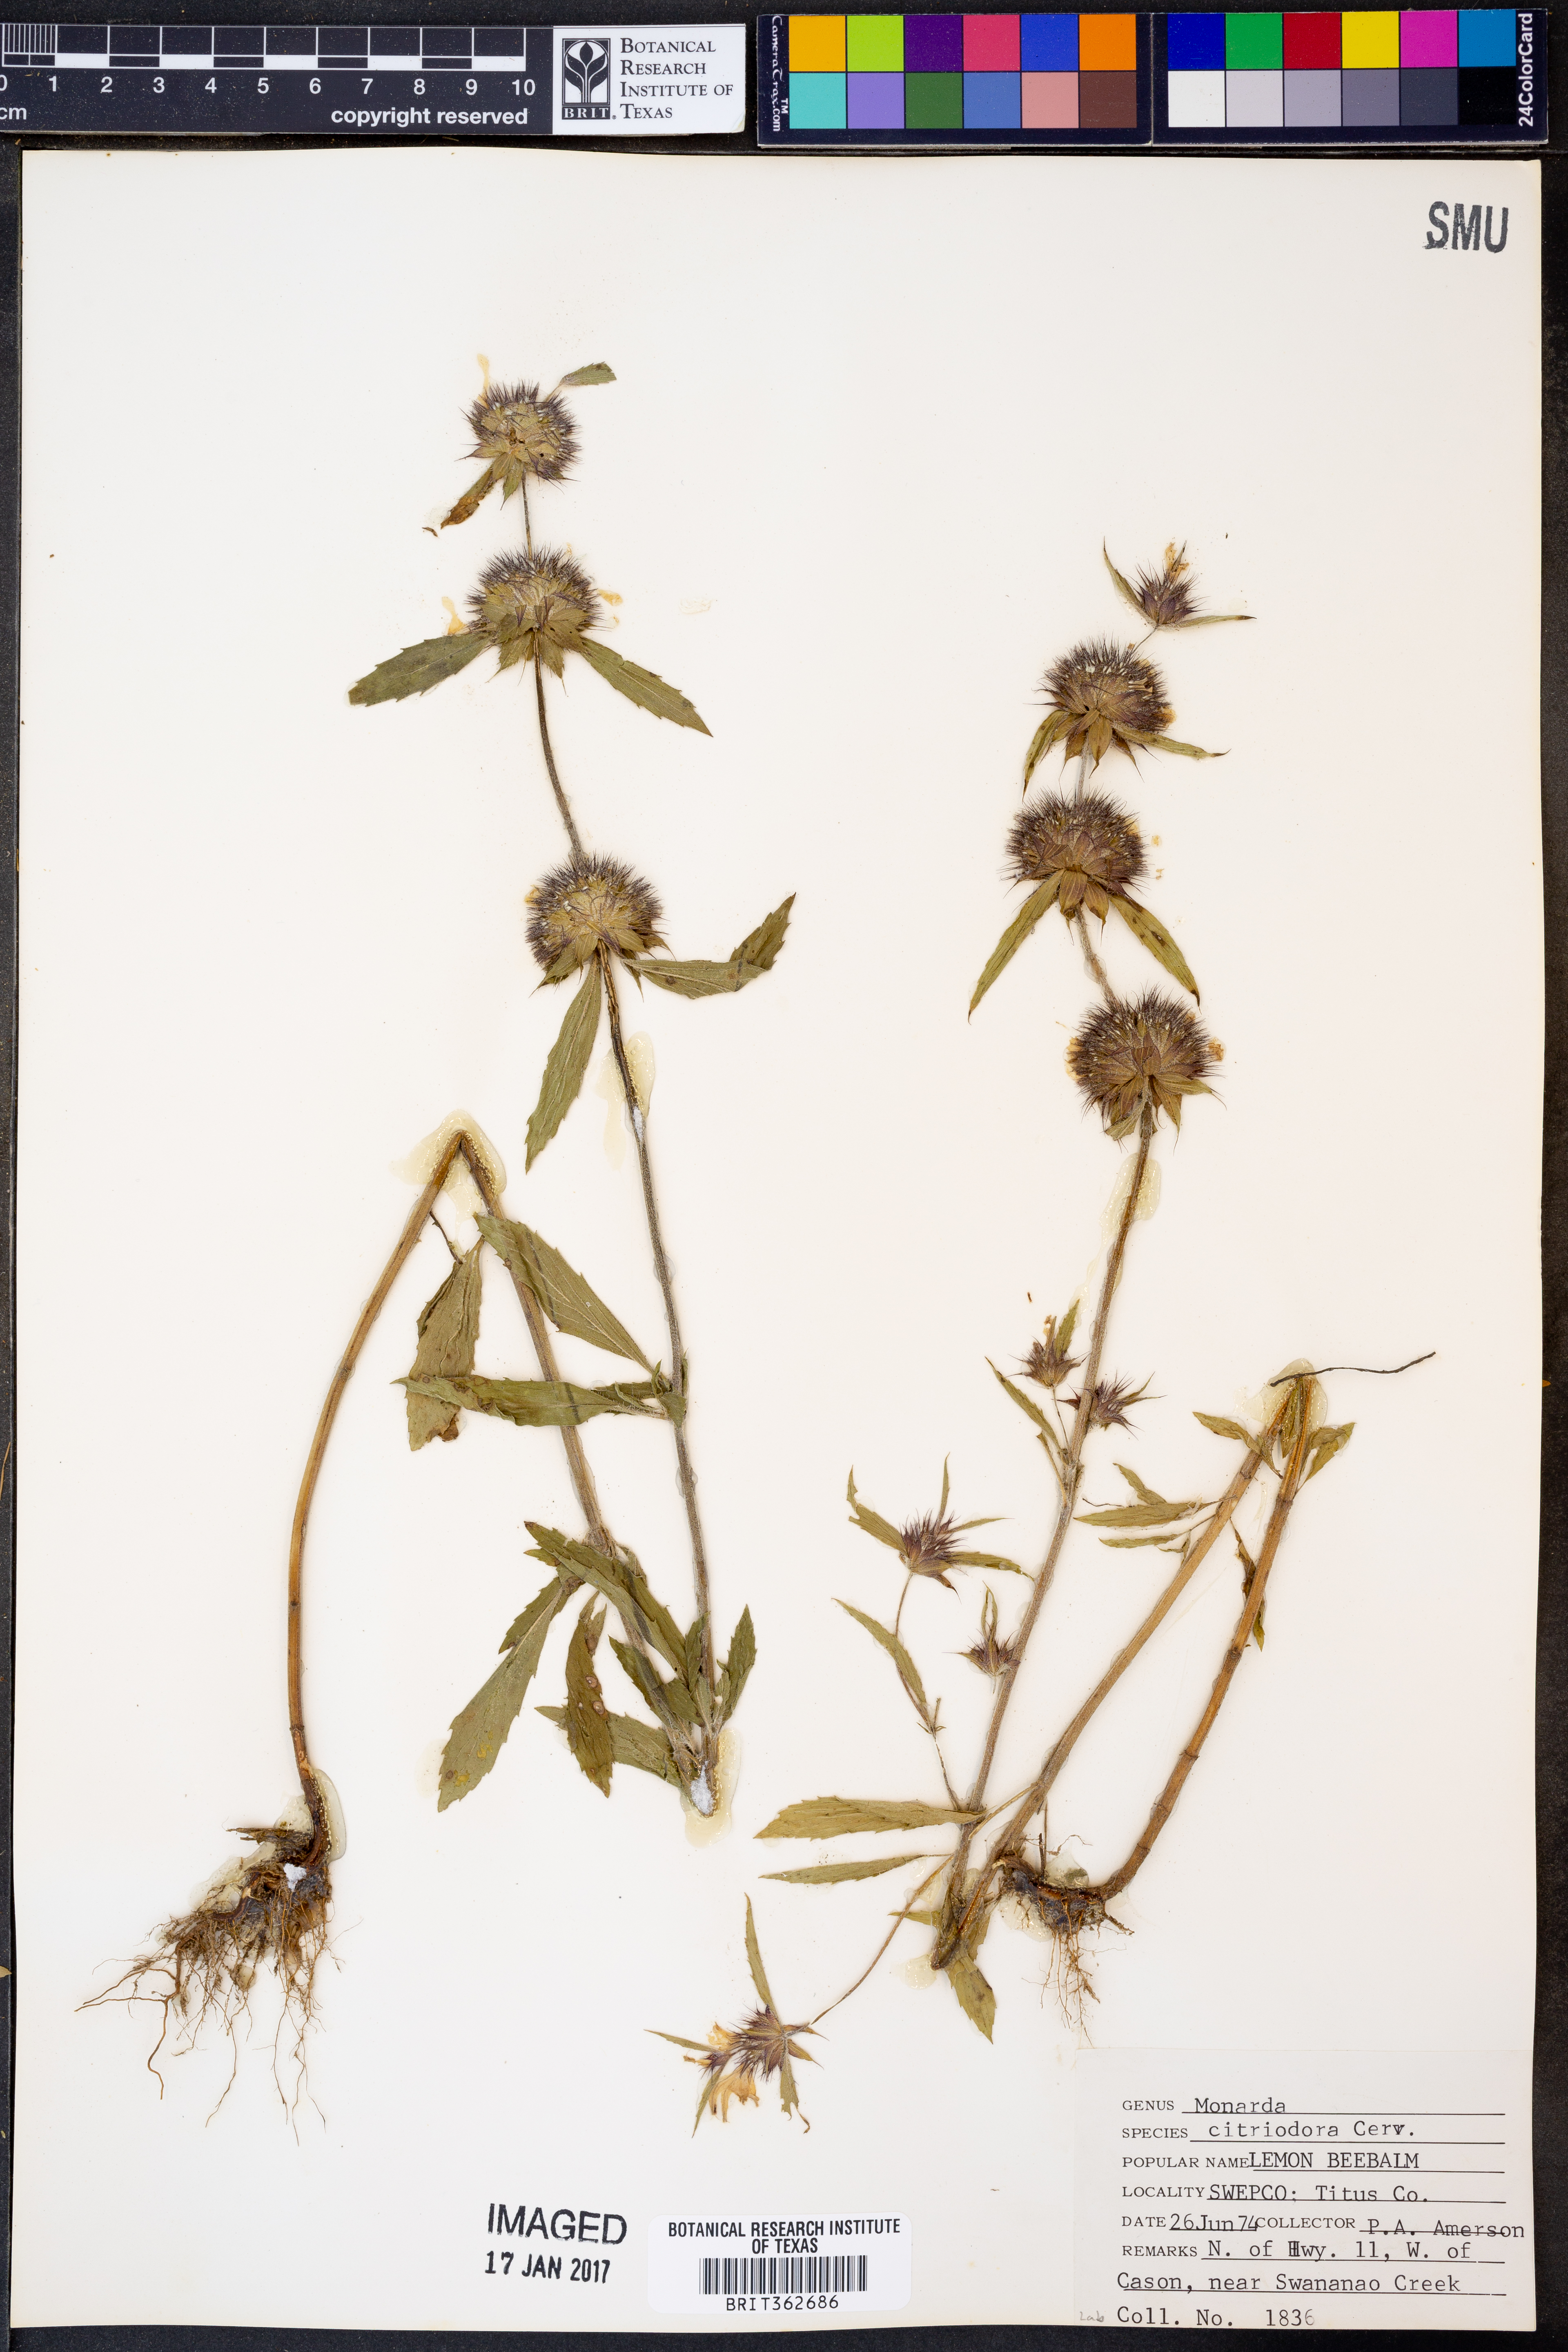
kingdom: Plantae
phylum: Tracheophyta
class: Magnoliopsida
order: Lamiales
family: Lamiaceae
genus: Monarda
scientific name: Monarda citriodora
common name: Lemon beebalm
